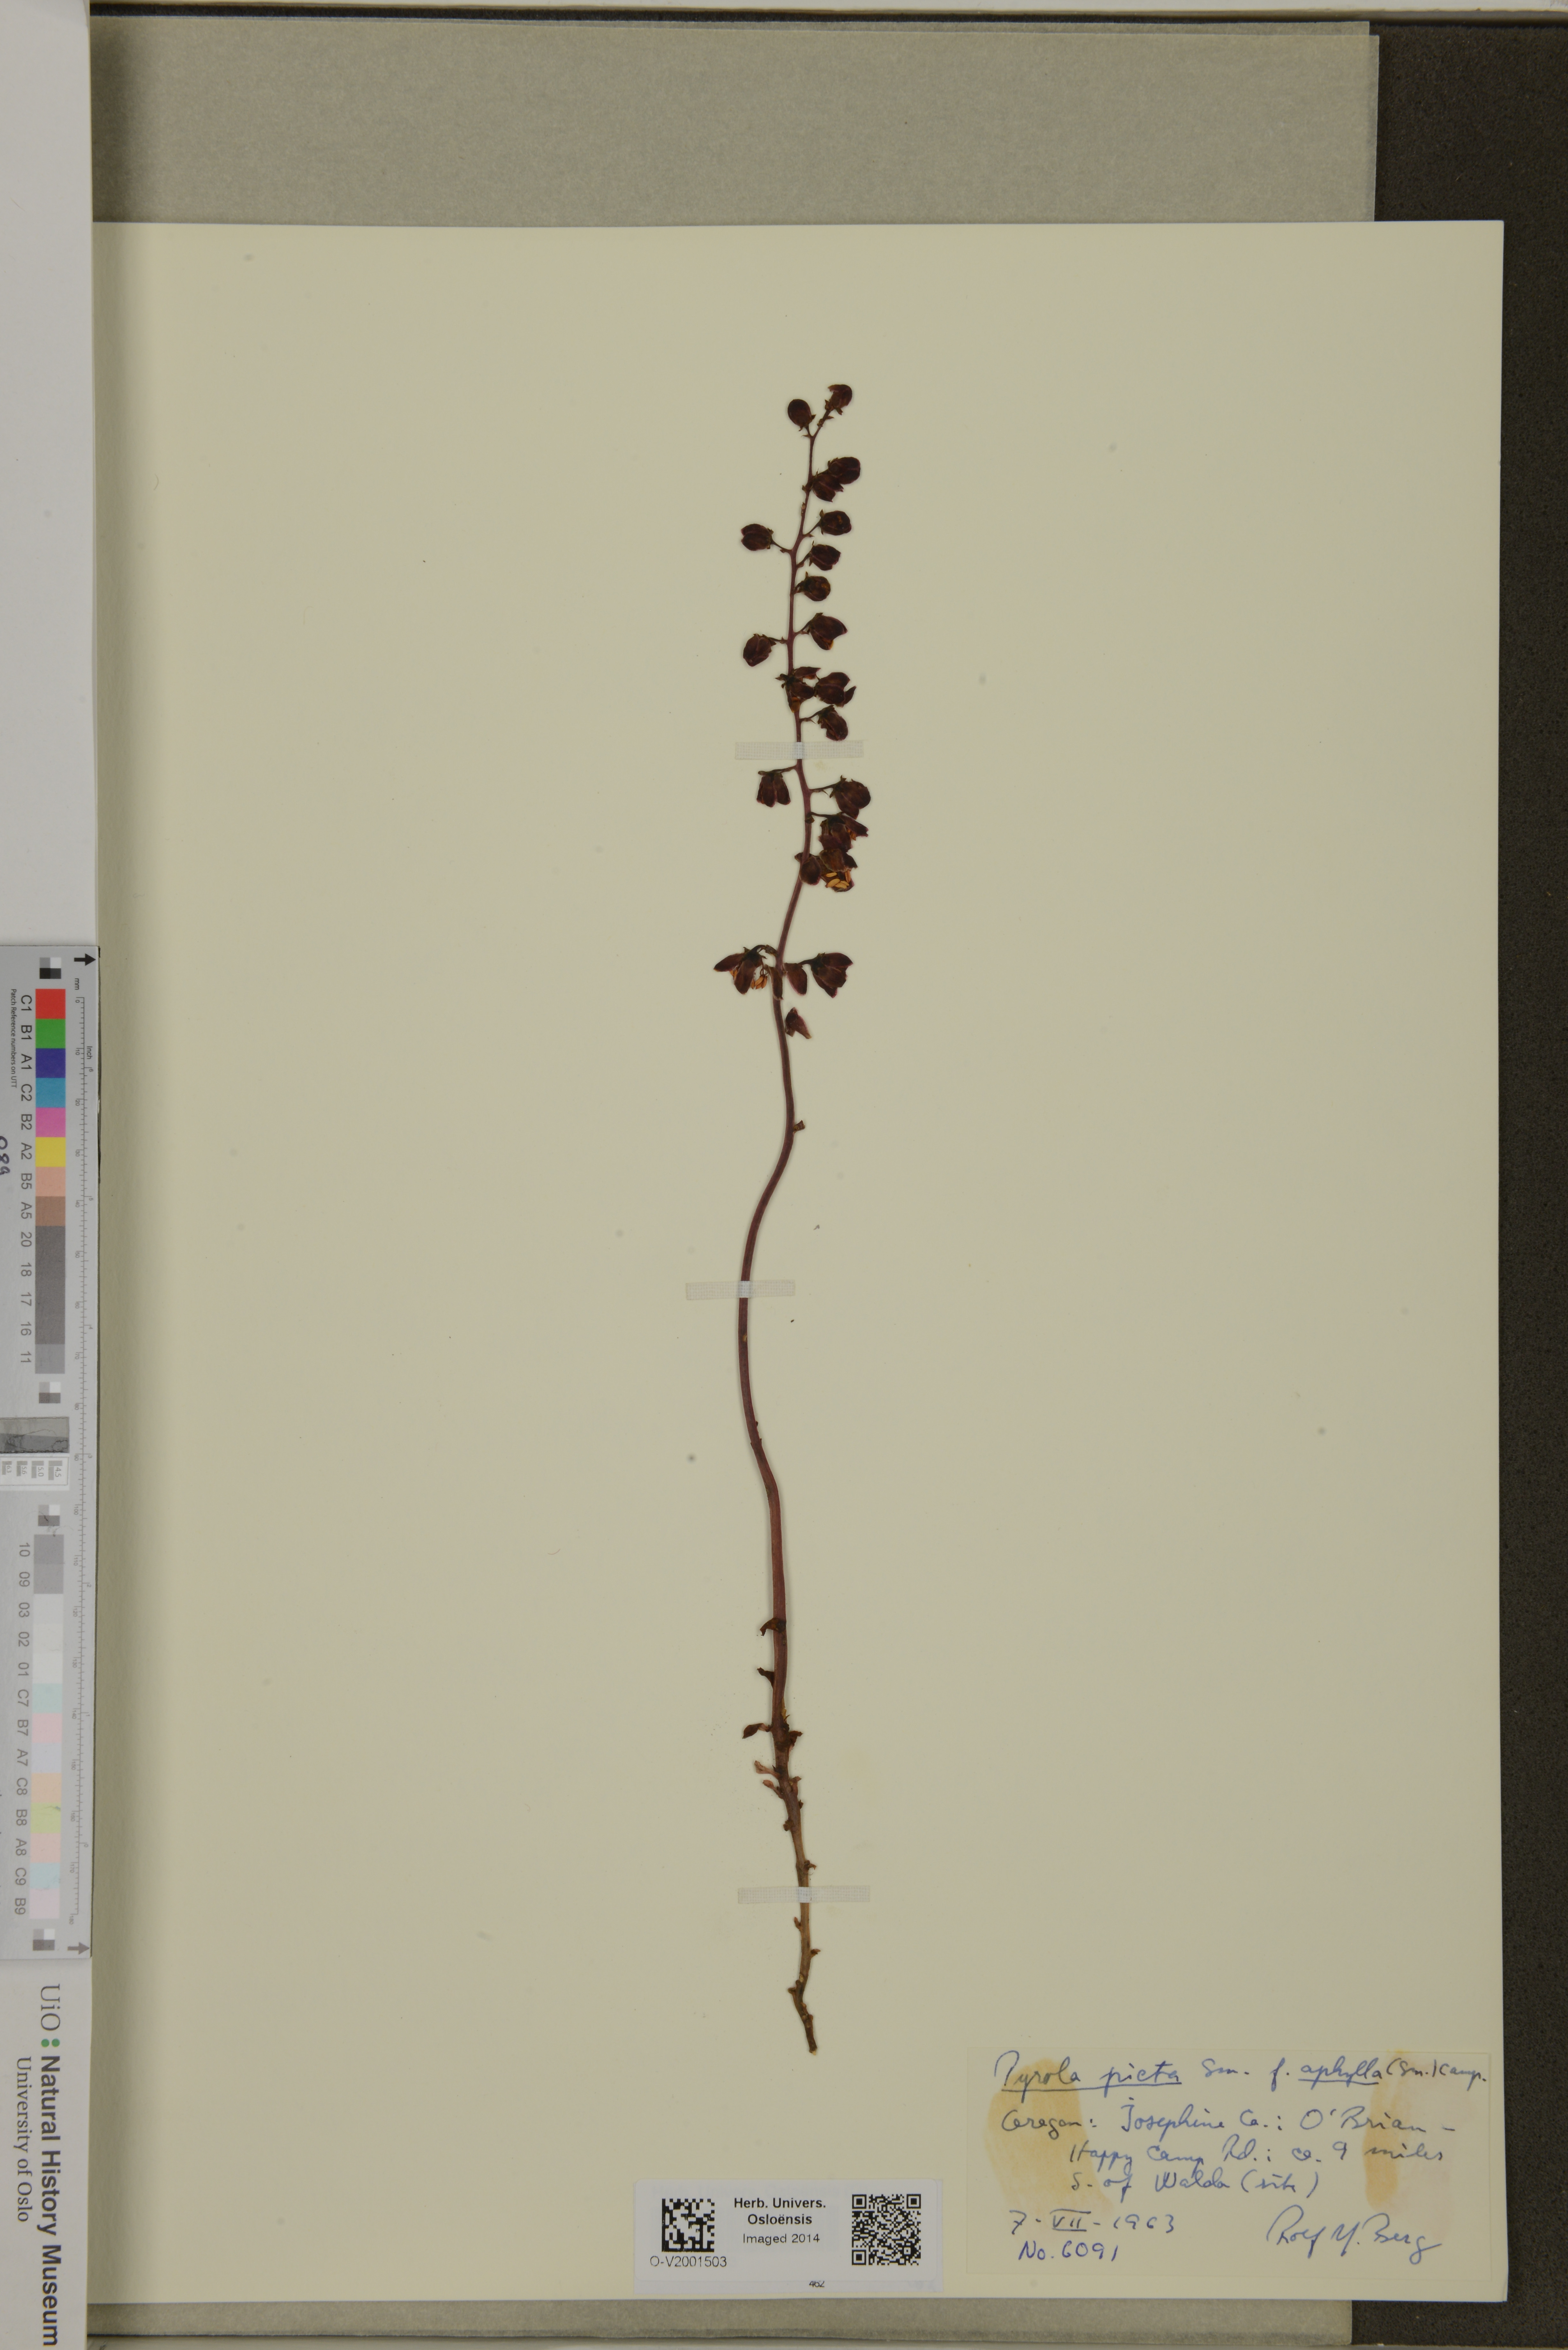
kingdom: Plantae
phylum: Tracheophyta
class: Magnoliopsida
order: Ericales
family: Ericaceae
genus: Pyrola
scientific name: Pyrola aphylla
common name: Leafless wintergreen
